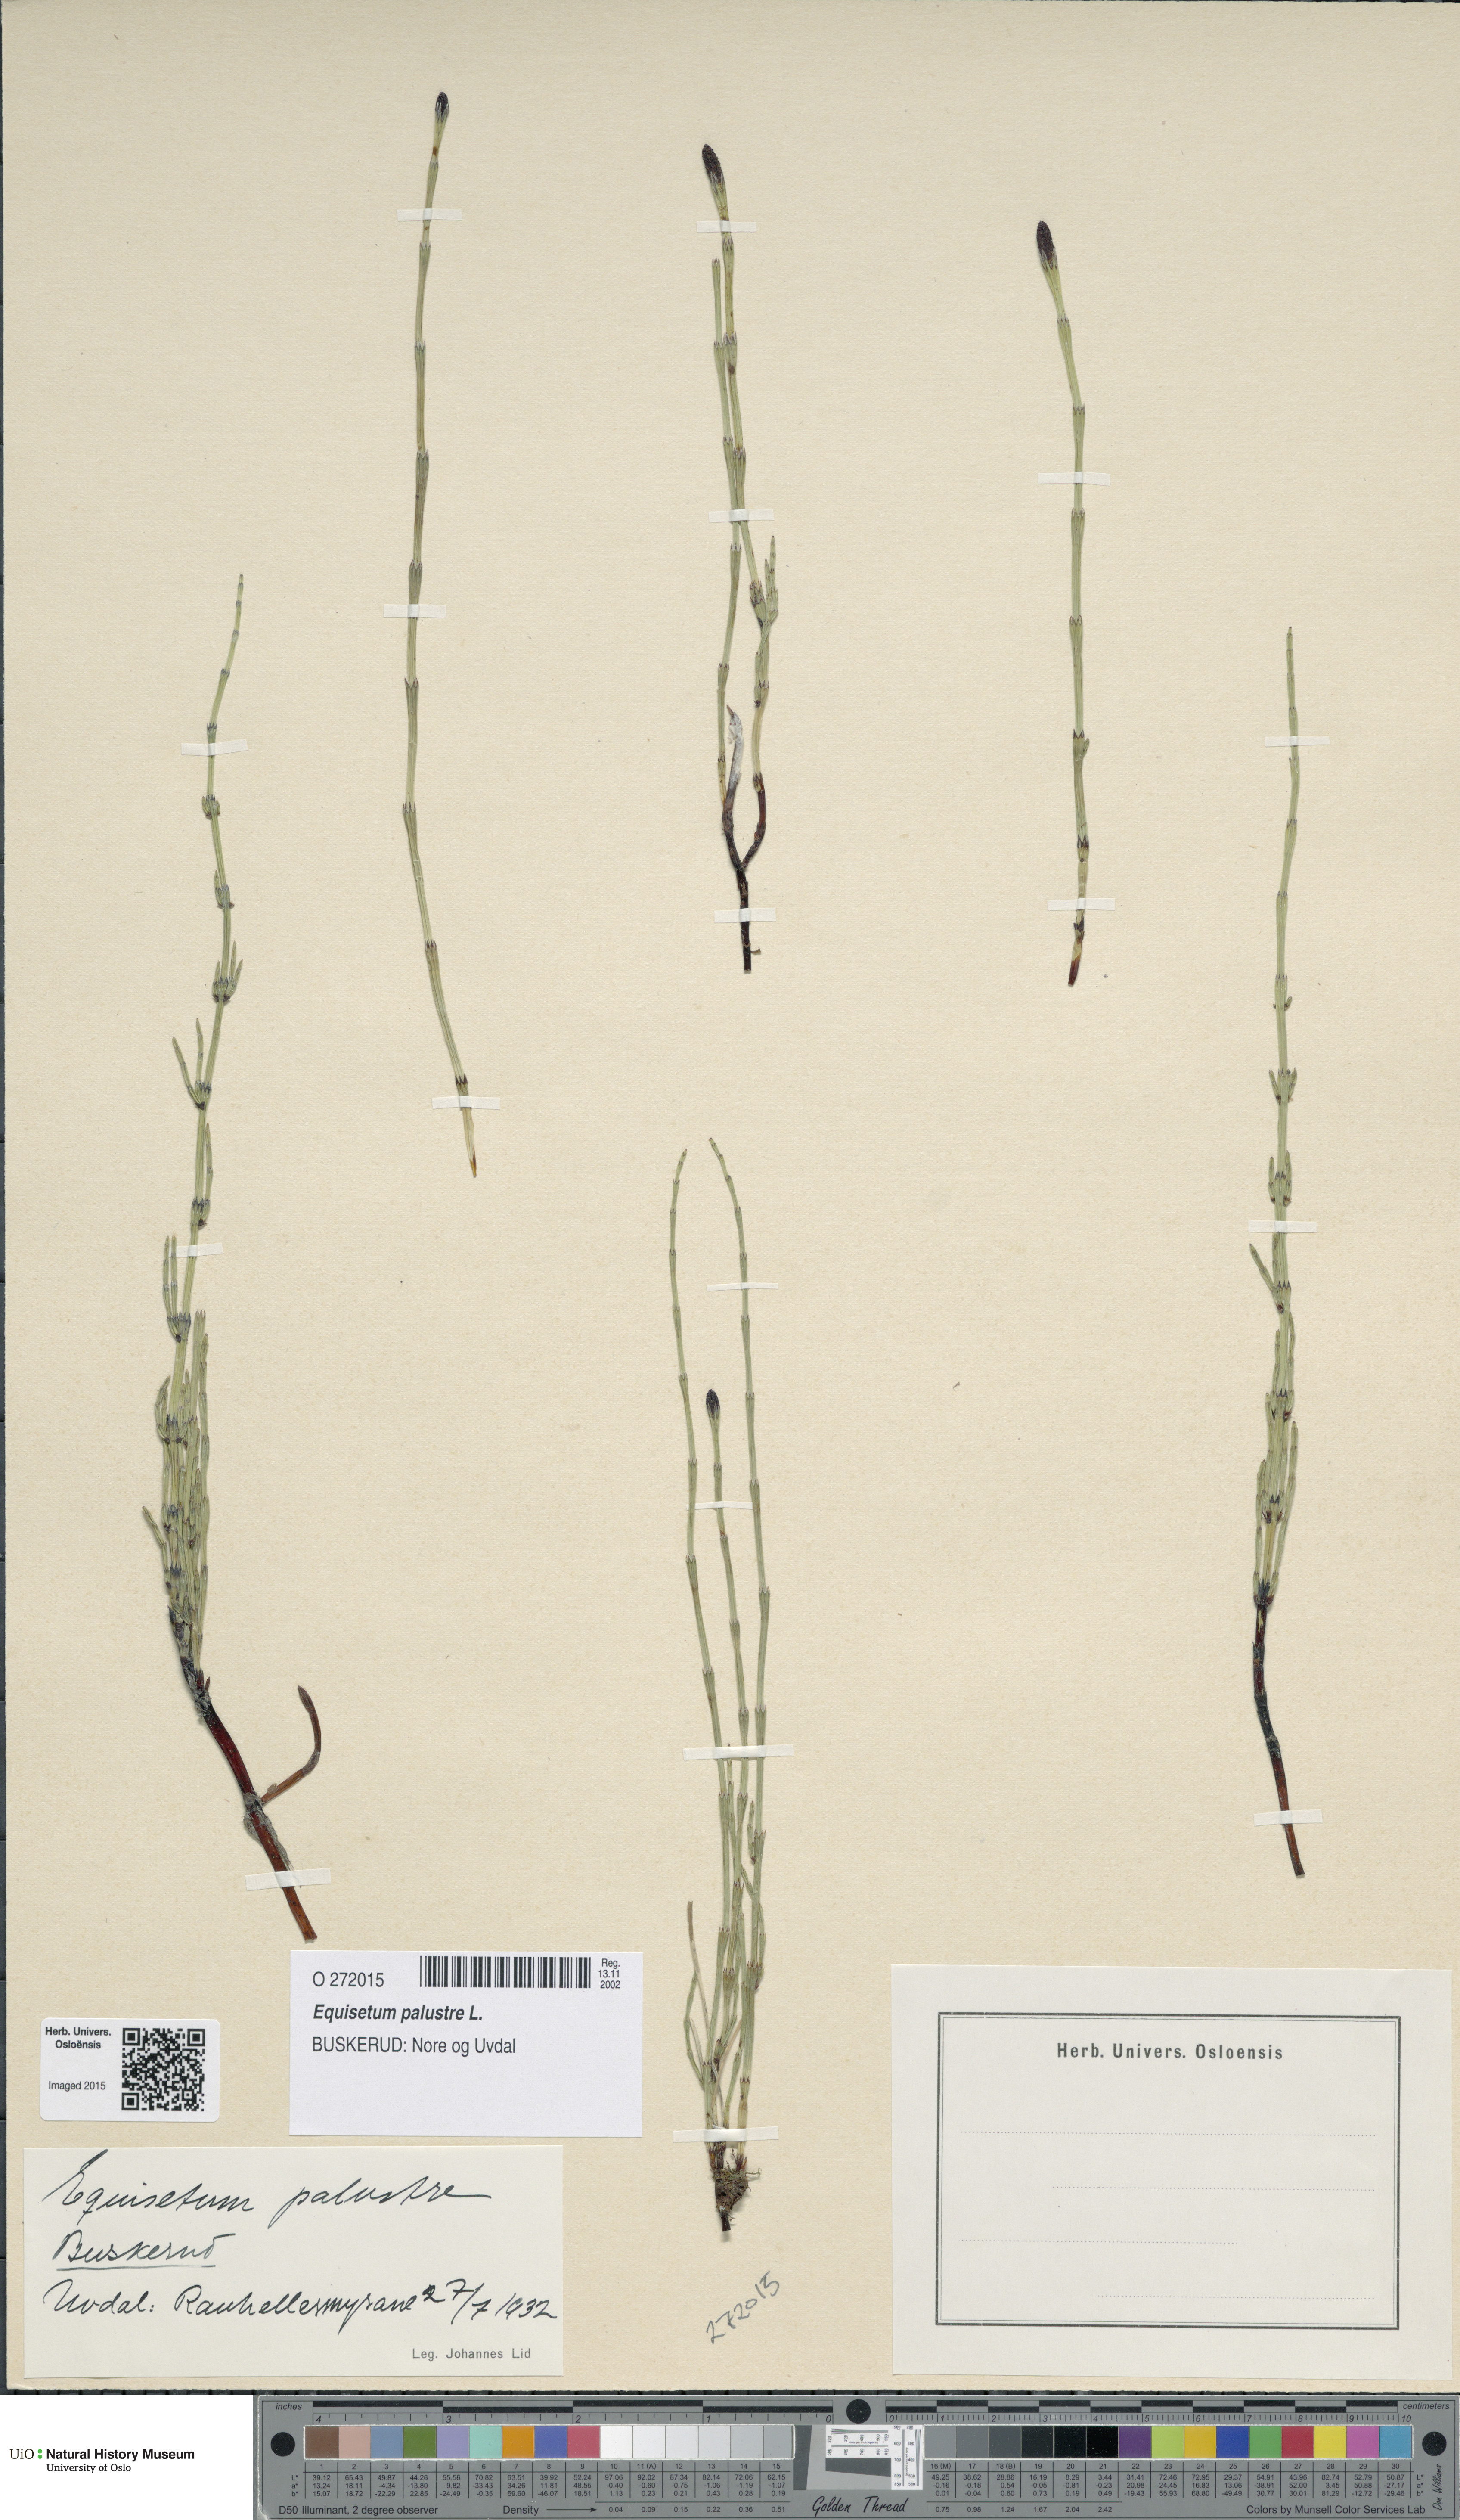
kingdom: Plantae
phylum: Tracheophyta
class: Polypodiopsida
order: Equisetales
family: Equisetaceae
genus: Equisetum
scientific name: Equisetum palustre
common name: Marsh horsetail
